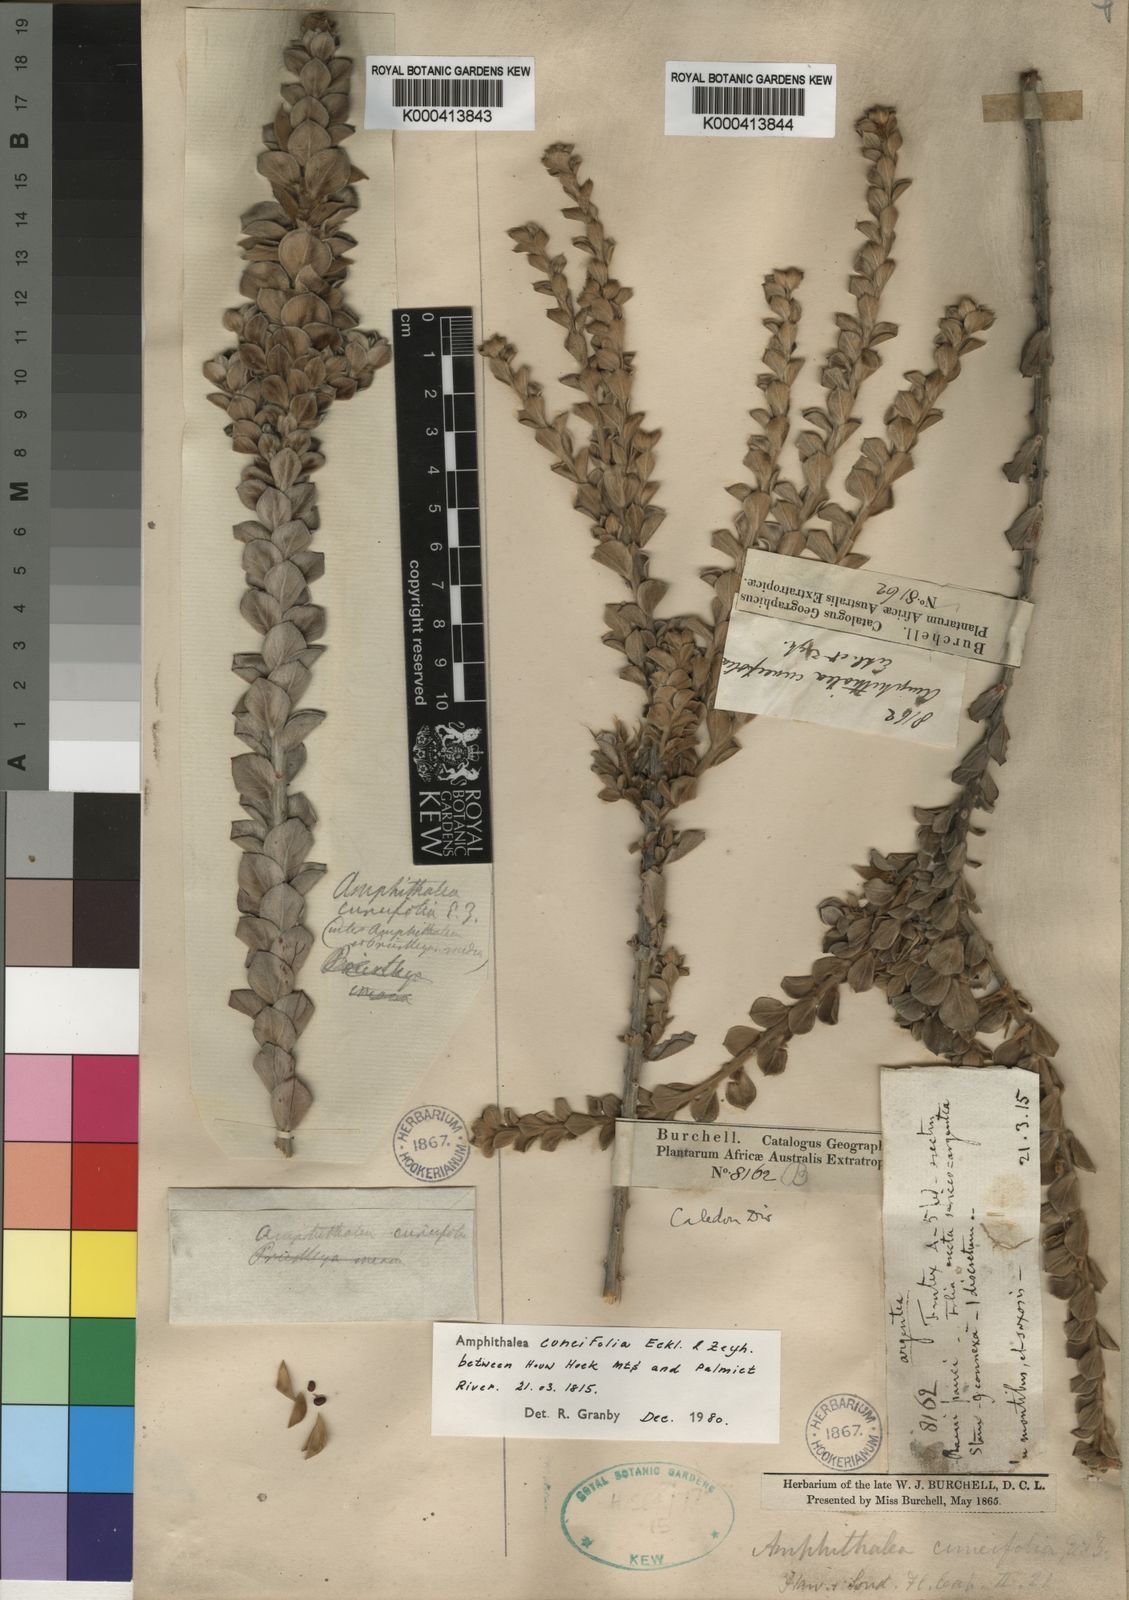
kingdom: Plantae
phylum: Tracheophyta
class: Magnoliopsida
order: Fabales
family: Fabaceae
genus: Amphithalea
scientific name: Amphithalea cuneifolia
